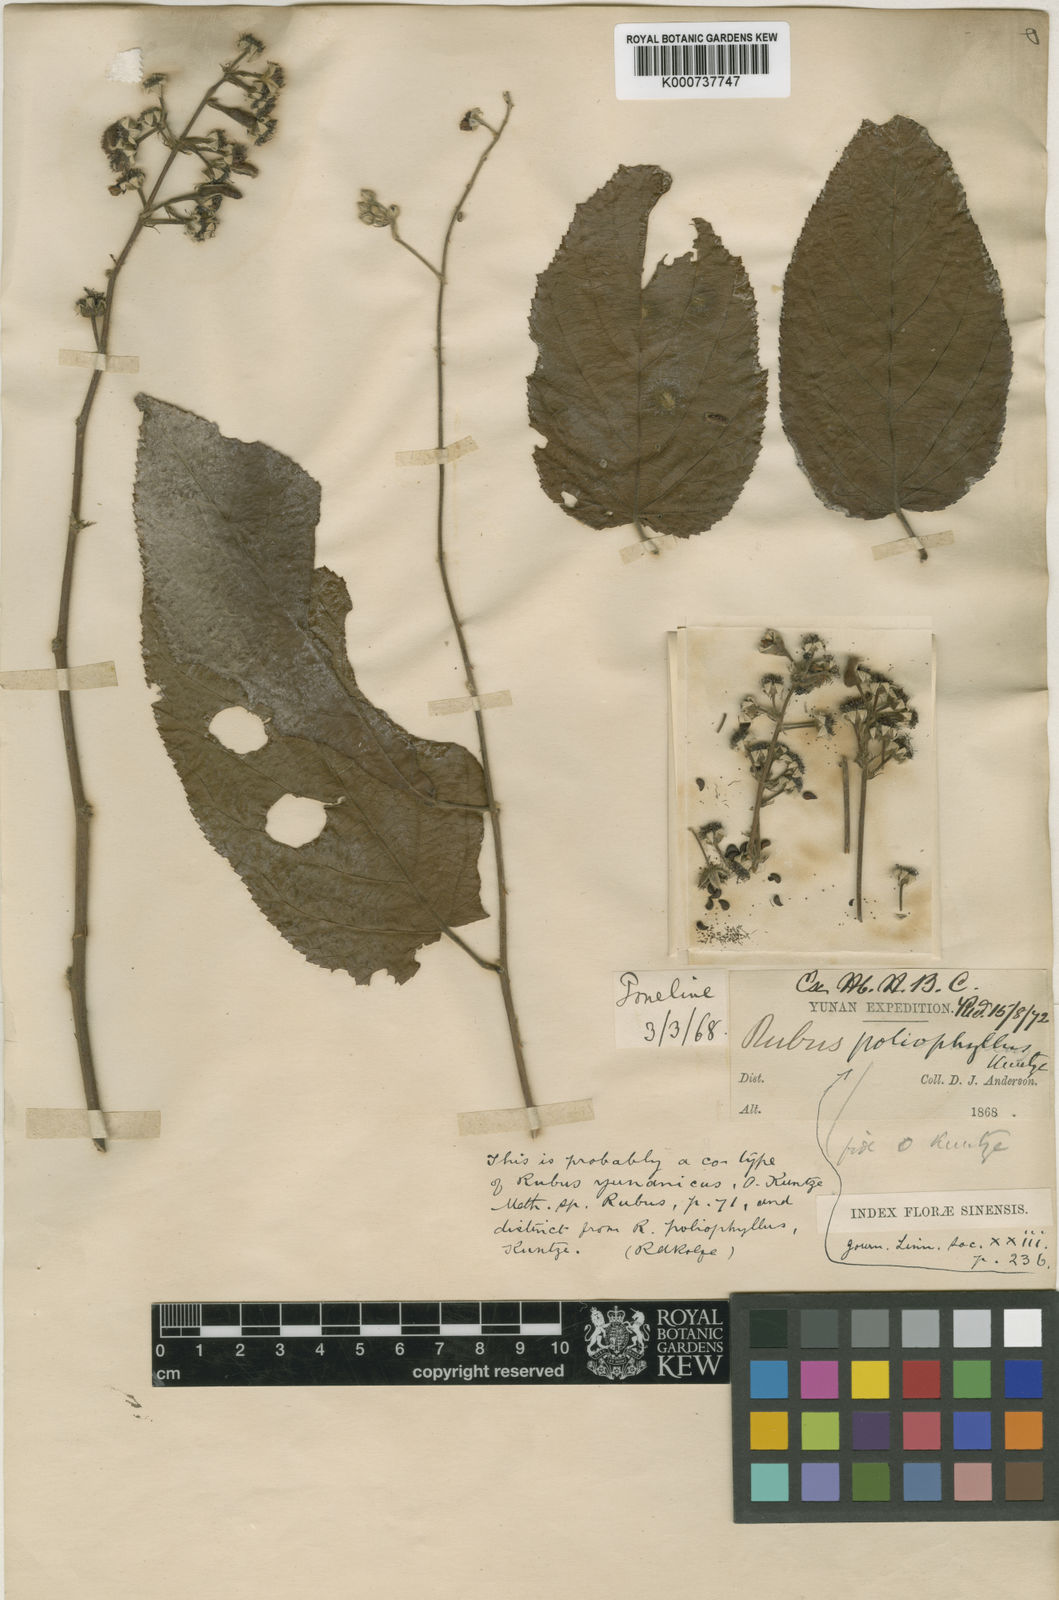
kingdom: Plantae
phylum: Tracheophyta
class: Magnoliopsida
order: Rosales
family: Rosaceae
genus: Rubus
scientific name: Rubus yunanicus
